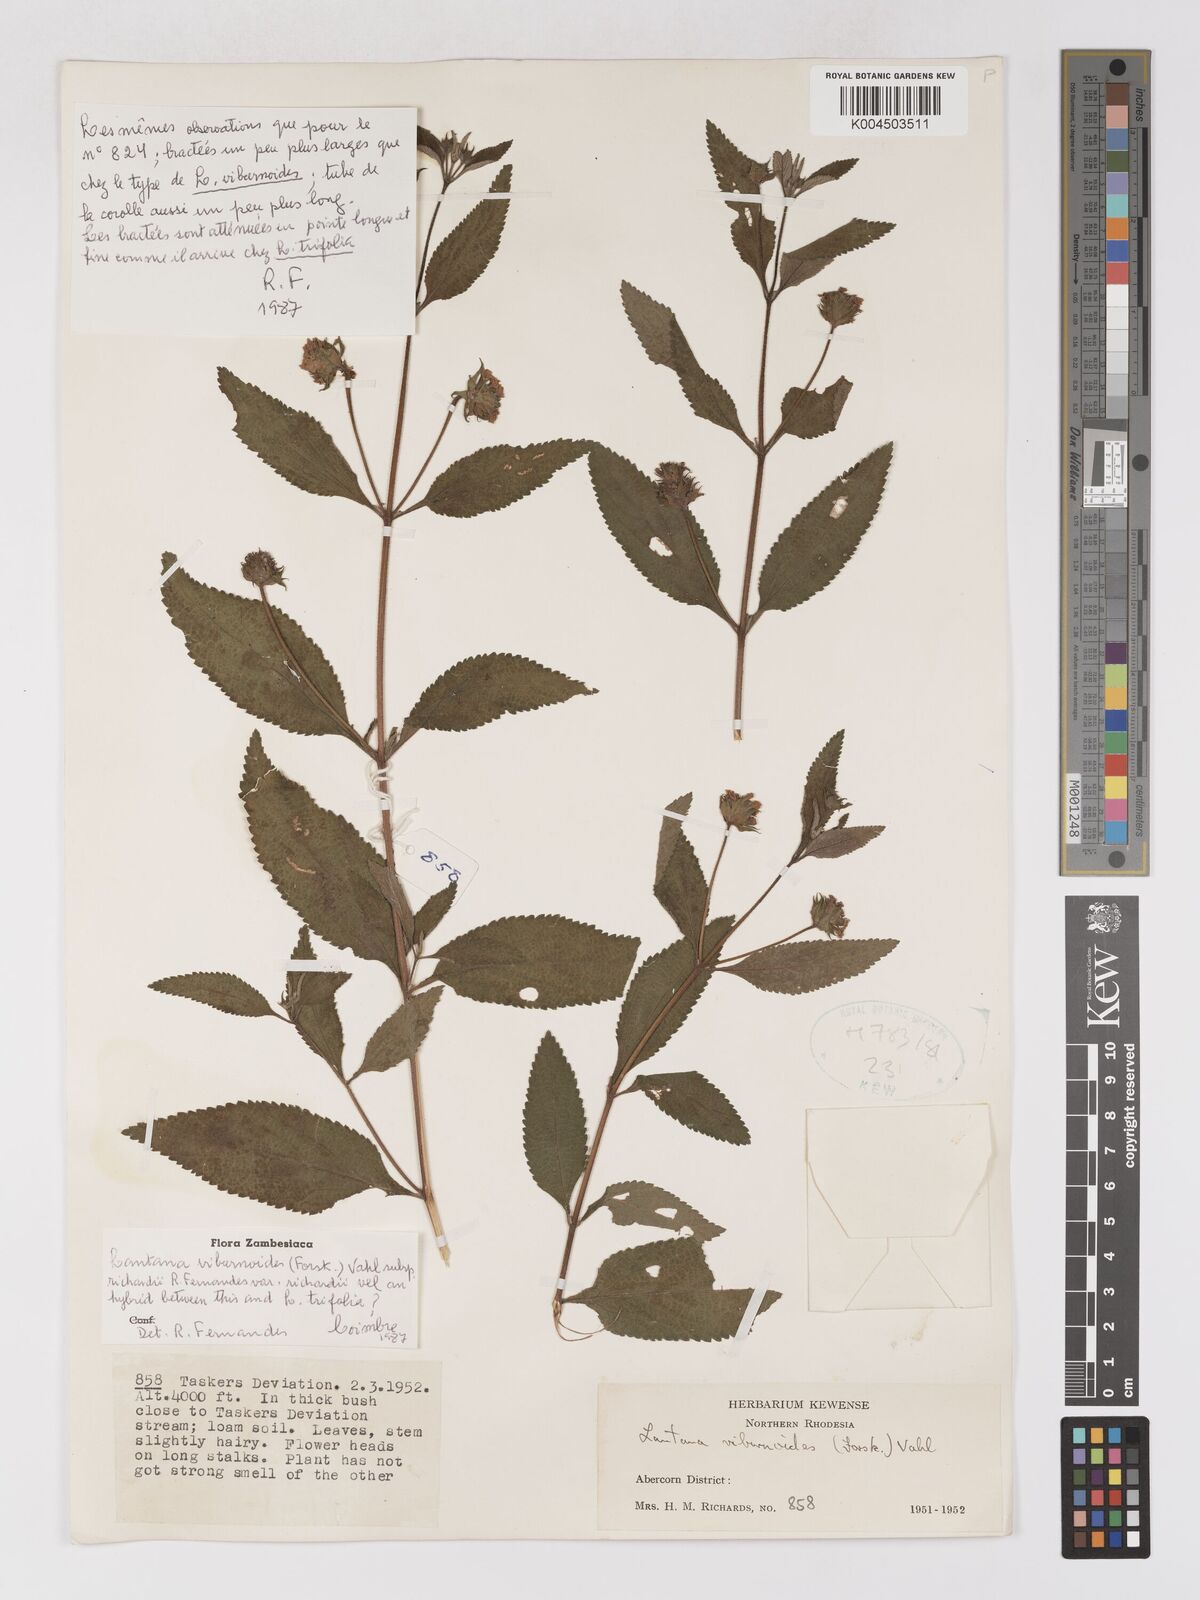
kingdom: Plantae
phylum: Tracheophyta
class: Magnoliopsida
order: Lamiales
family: Verbenaceae
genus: Lantana
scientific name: Lantana
